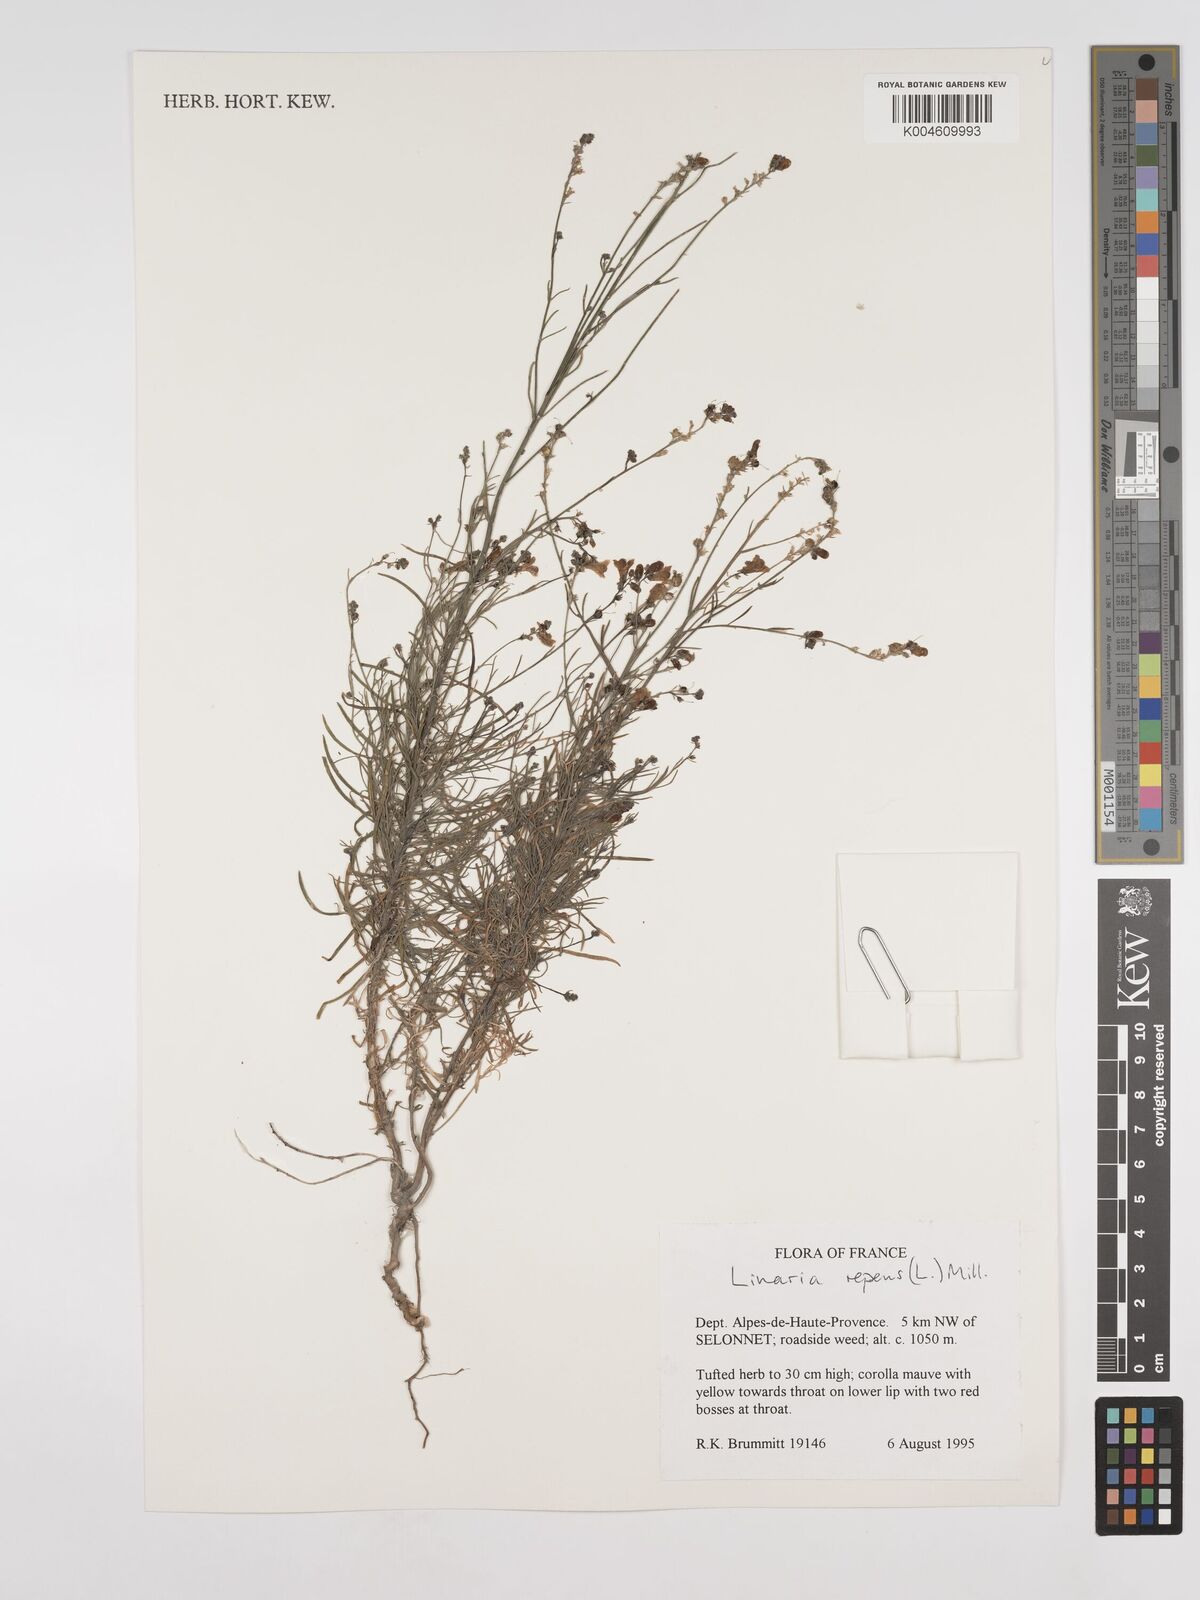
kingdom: Plantae
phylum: Tracheophyta
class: Magnoliopsida
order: Lamiales
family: Plantaginaceae
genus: Linaria
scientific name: Linaria repens
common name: Pale toadflax
